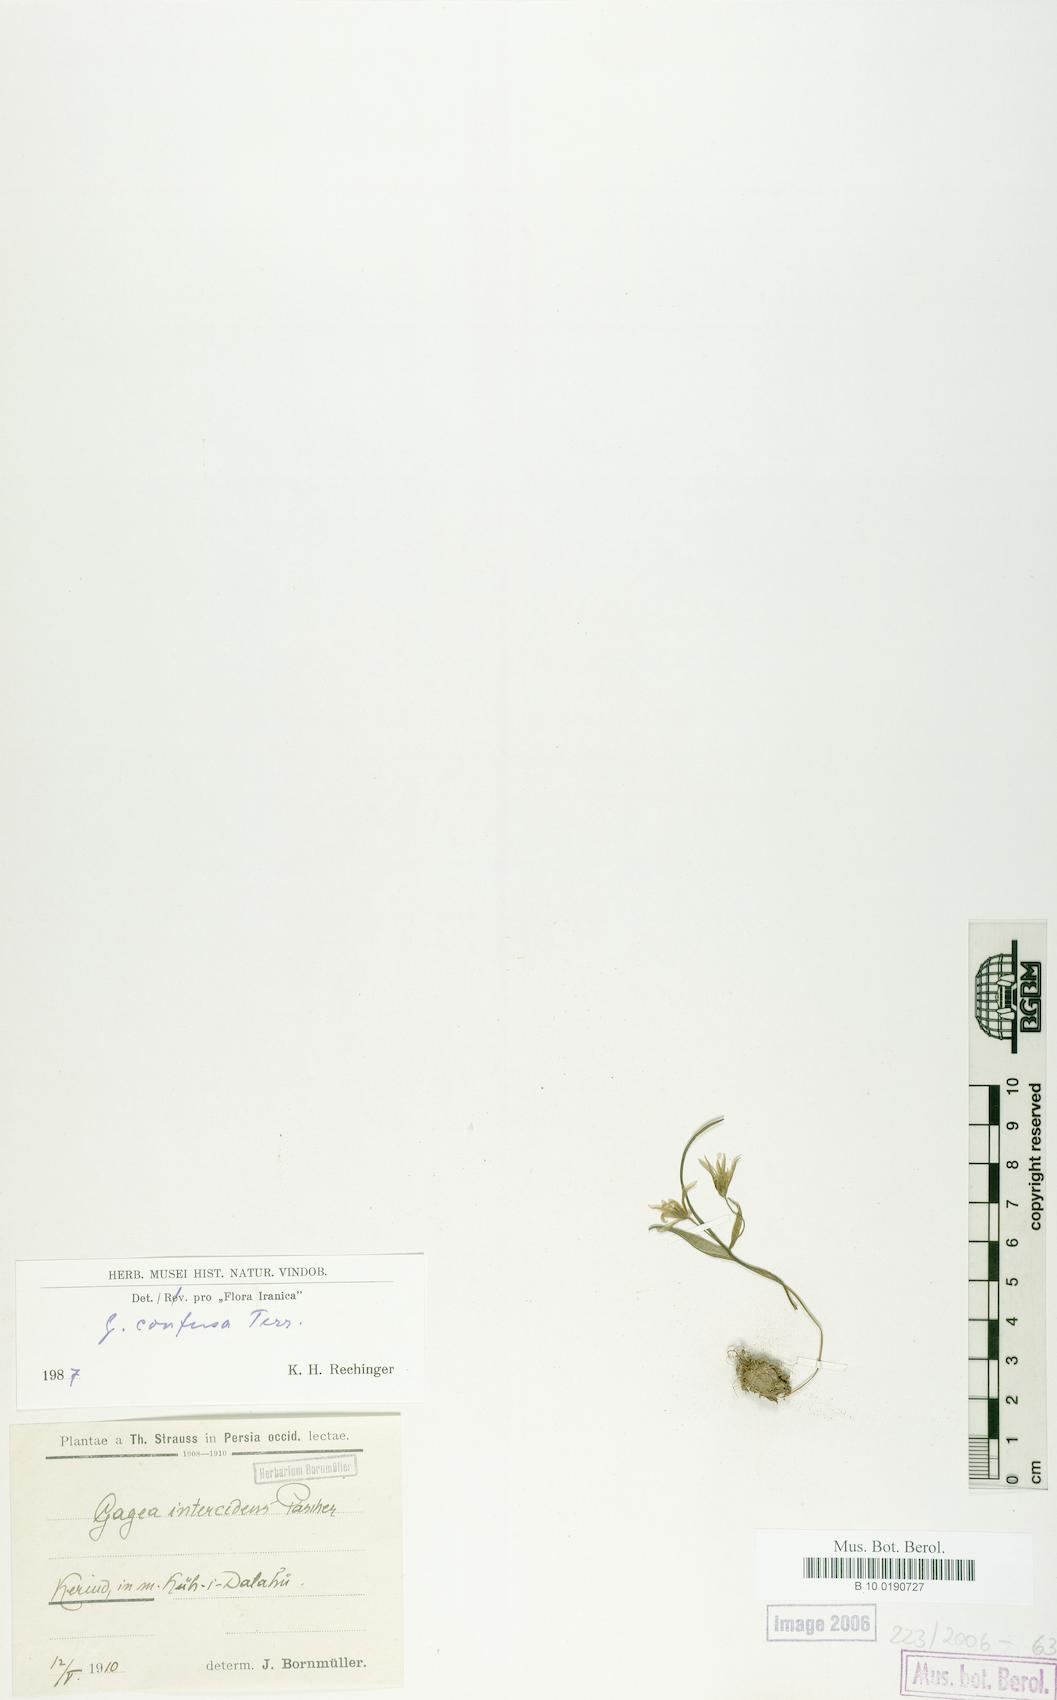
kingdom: Plantae
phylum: Tracheophyta
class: Liliopsida
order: Liliales
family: Liliaceae
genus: Gagea
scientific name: Gagea confusa
